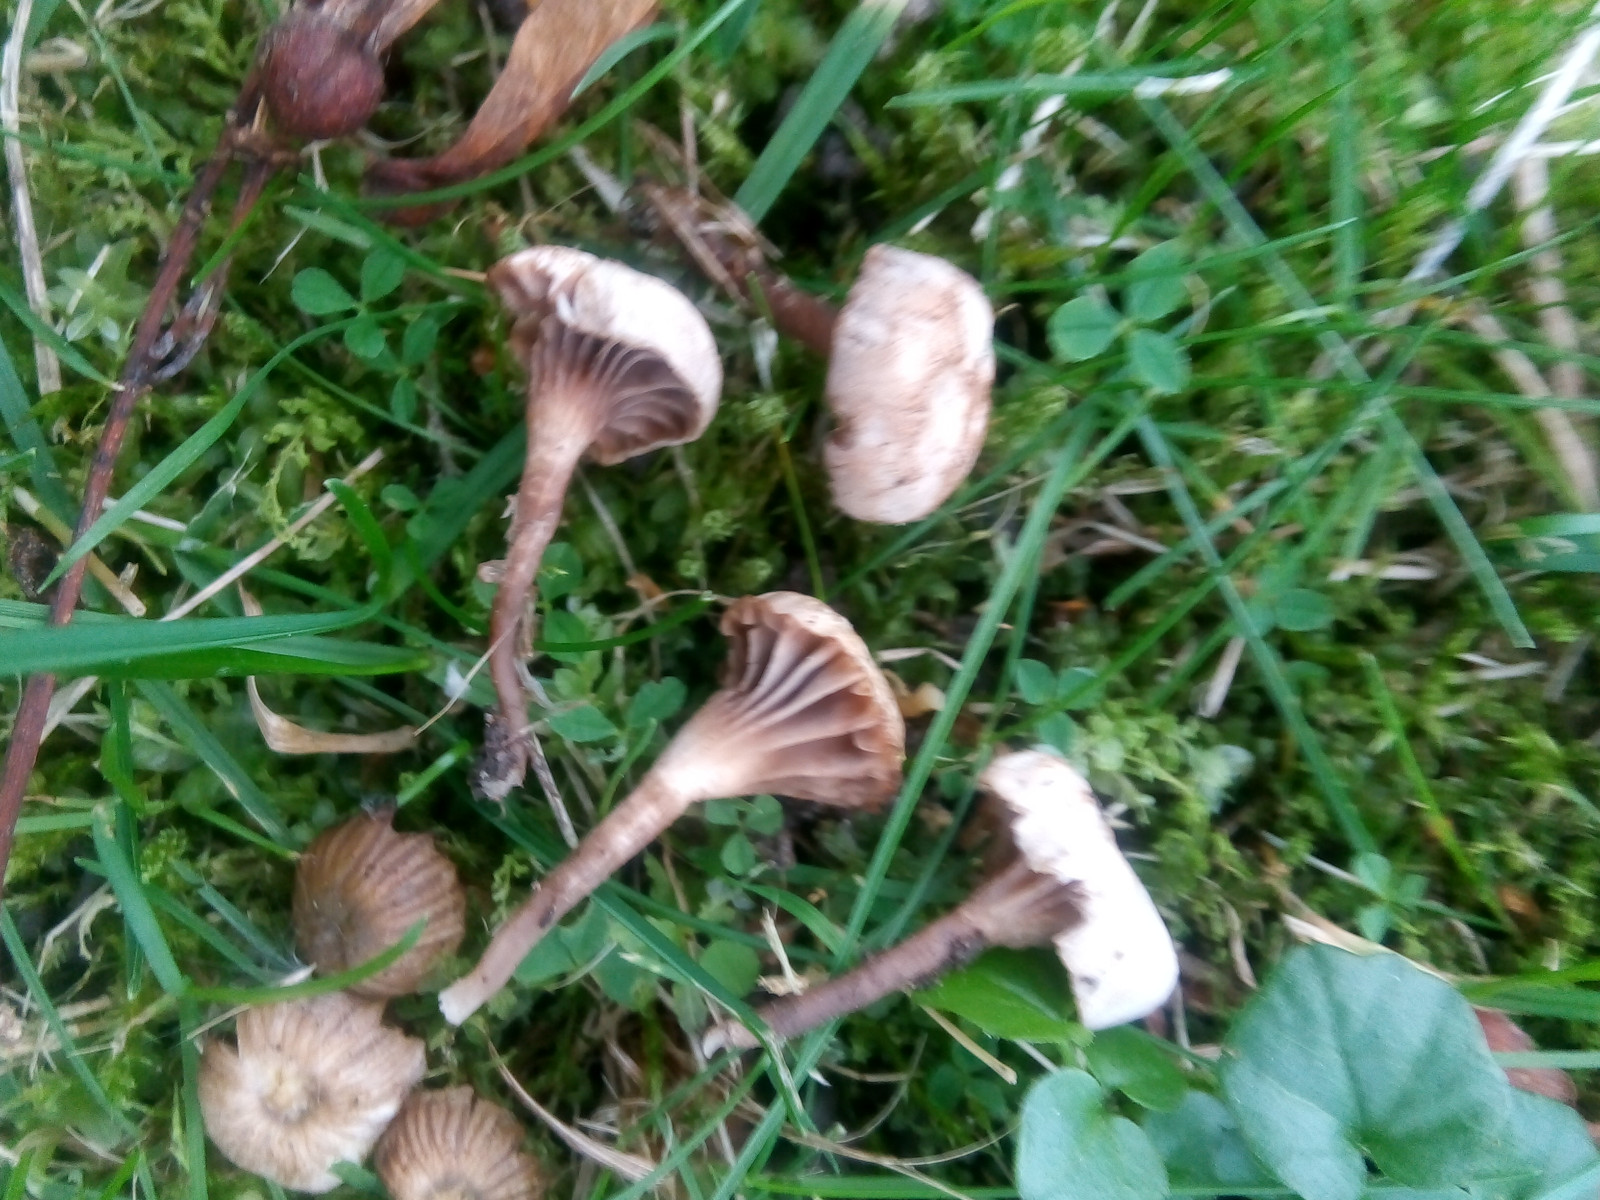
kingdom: Fungi
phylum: Basidiomycota
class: Agaricomycetes
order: Agaricales
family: Clavariaceae
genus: Hodophilus
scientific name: Hodophilus stramineus
